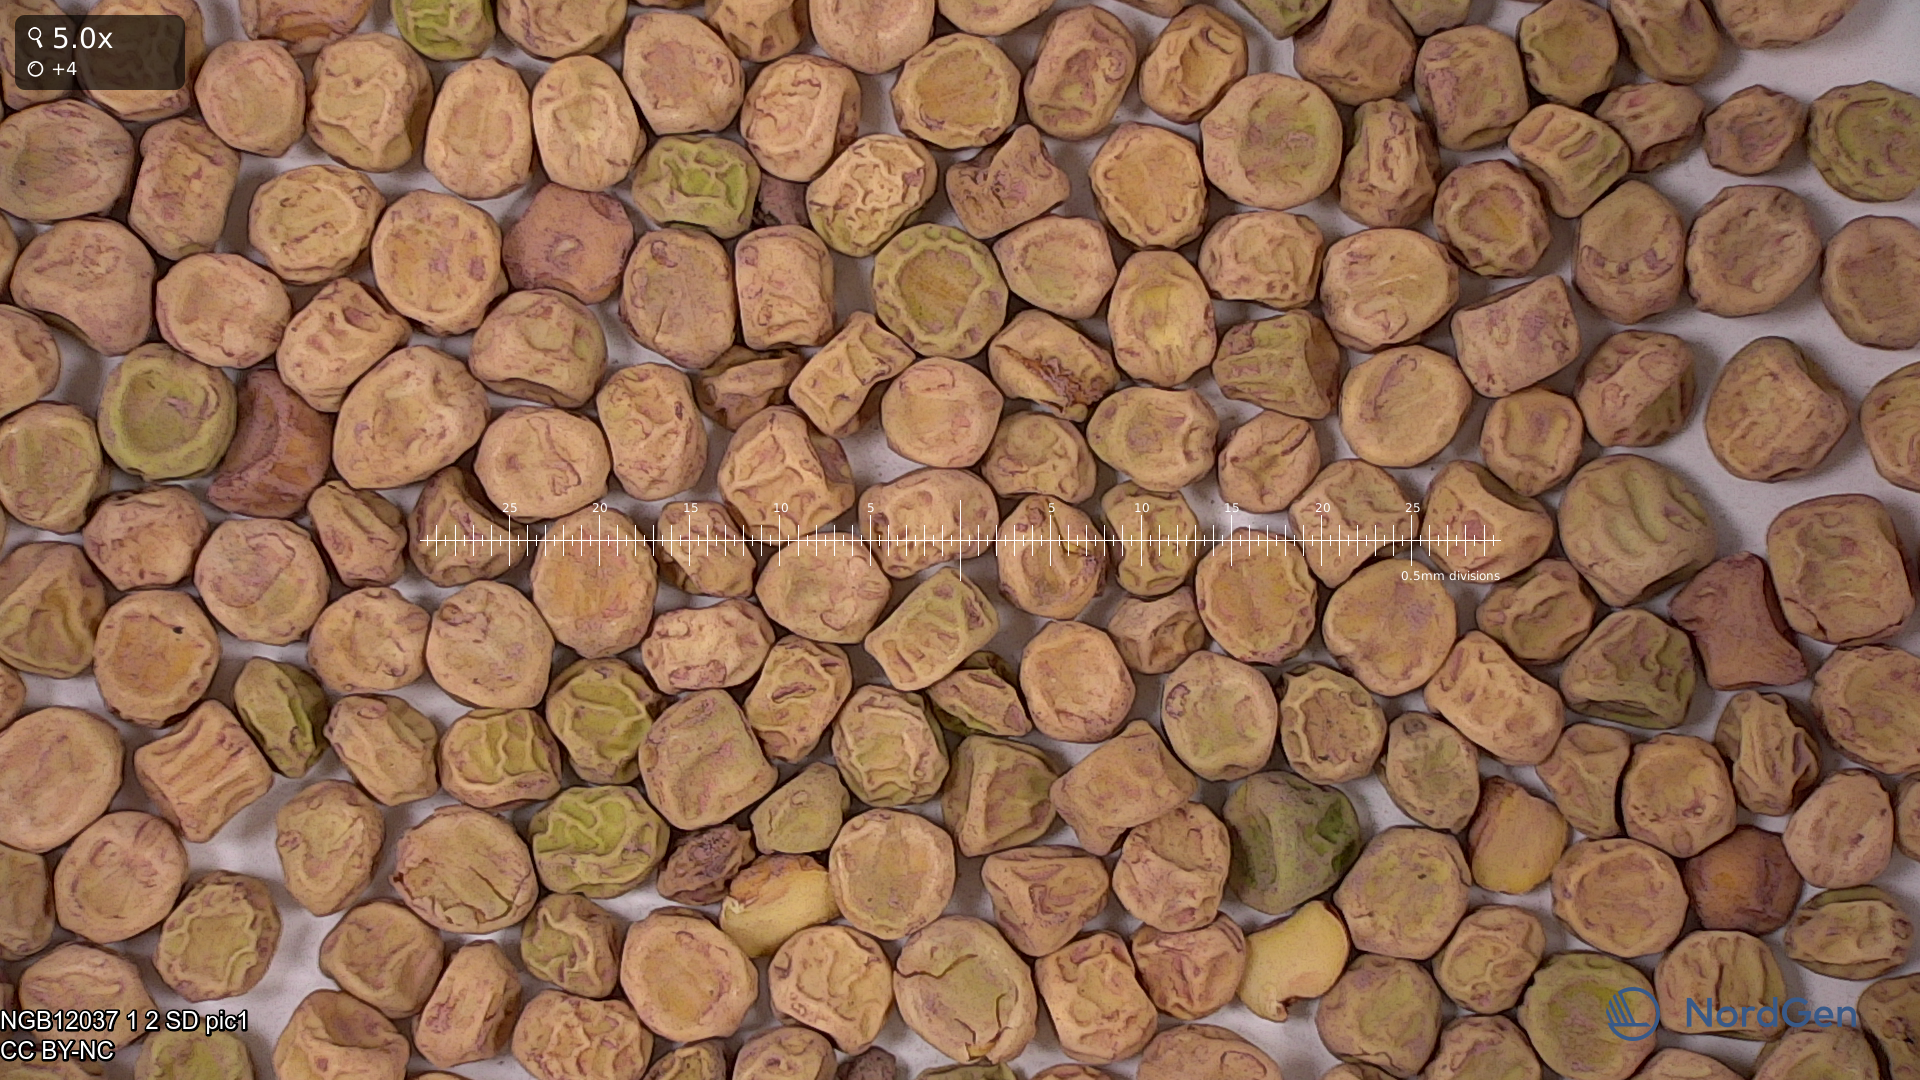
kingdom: Plantae
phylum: Tracheophyta
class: Magnoliopsida
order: Fabales
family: Fabaceae
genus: Lathyrus
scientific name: Lathyrus oleraceus
